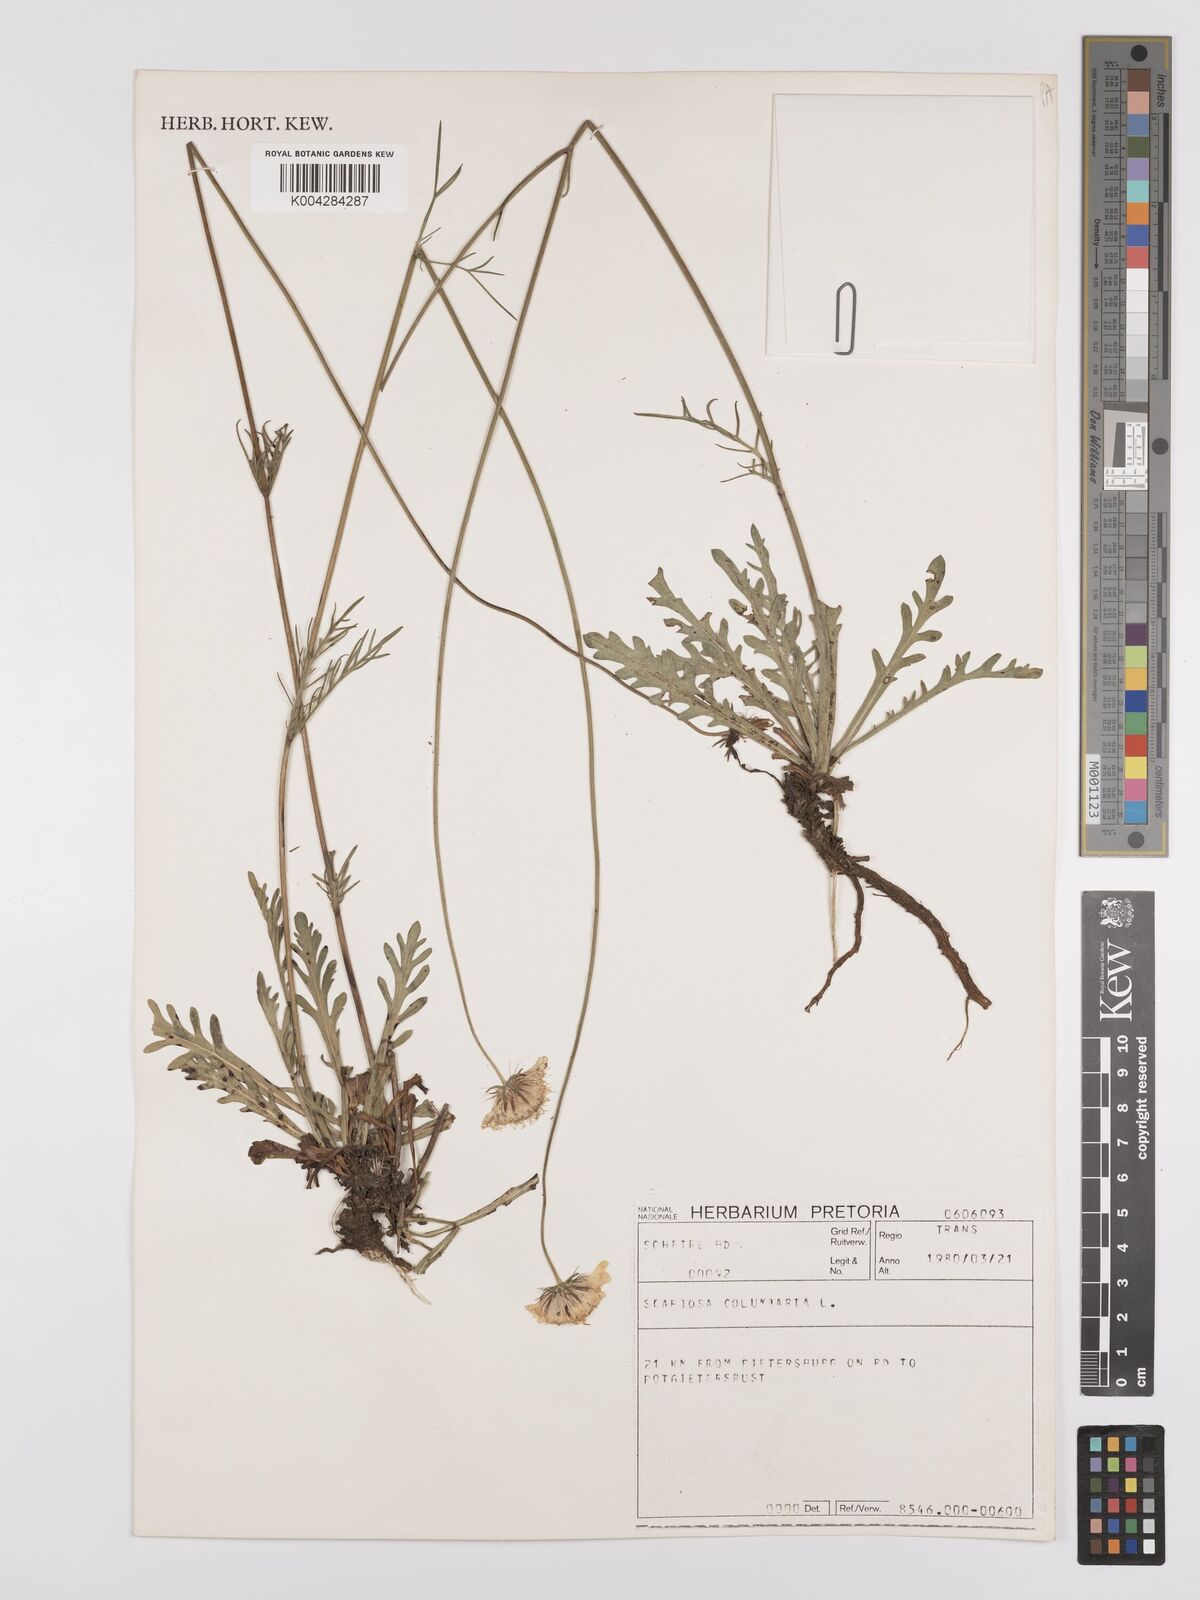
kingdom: Plantae
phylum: Tracheophyta
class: Magnoliopsida
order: Dipsacales
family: Caprifoliaceae
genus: Scabiosa
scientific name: Scabiosa columbaria
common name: Small scabious
